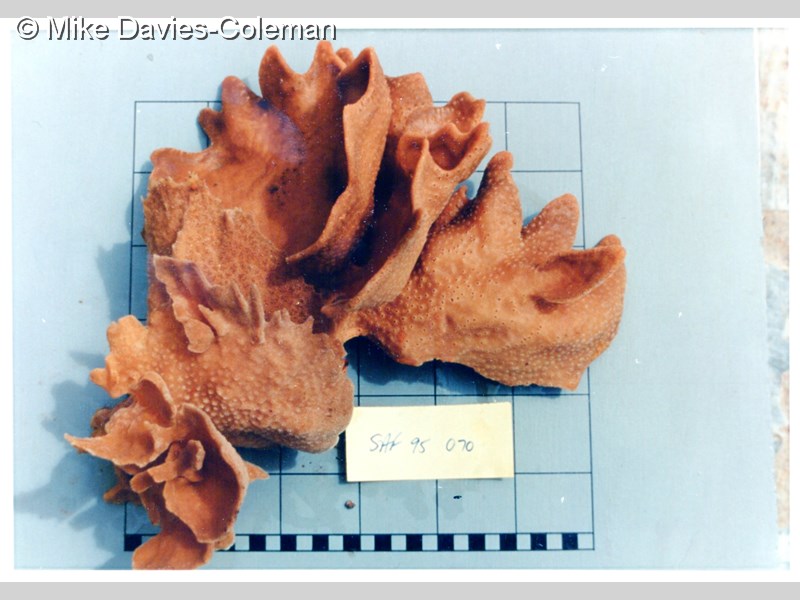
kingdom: Animalia
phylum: Porifera
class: Demospongiae
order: Poecilosclerida
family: Isodictyidae
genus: Isodictya
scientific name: Isodictya grandis
